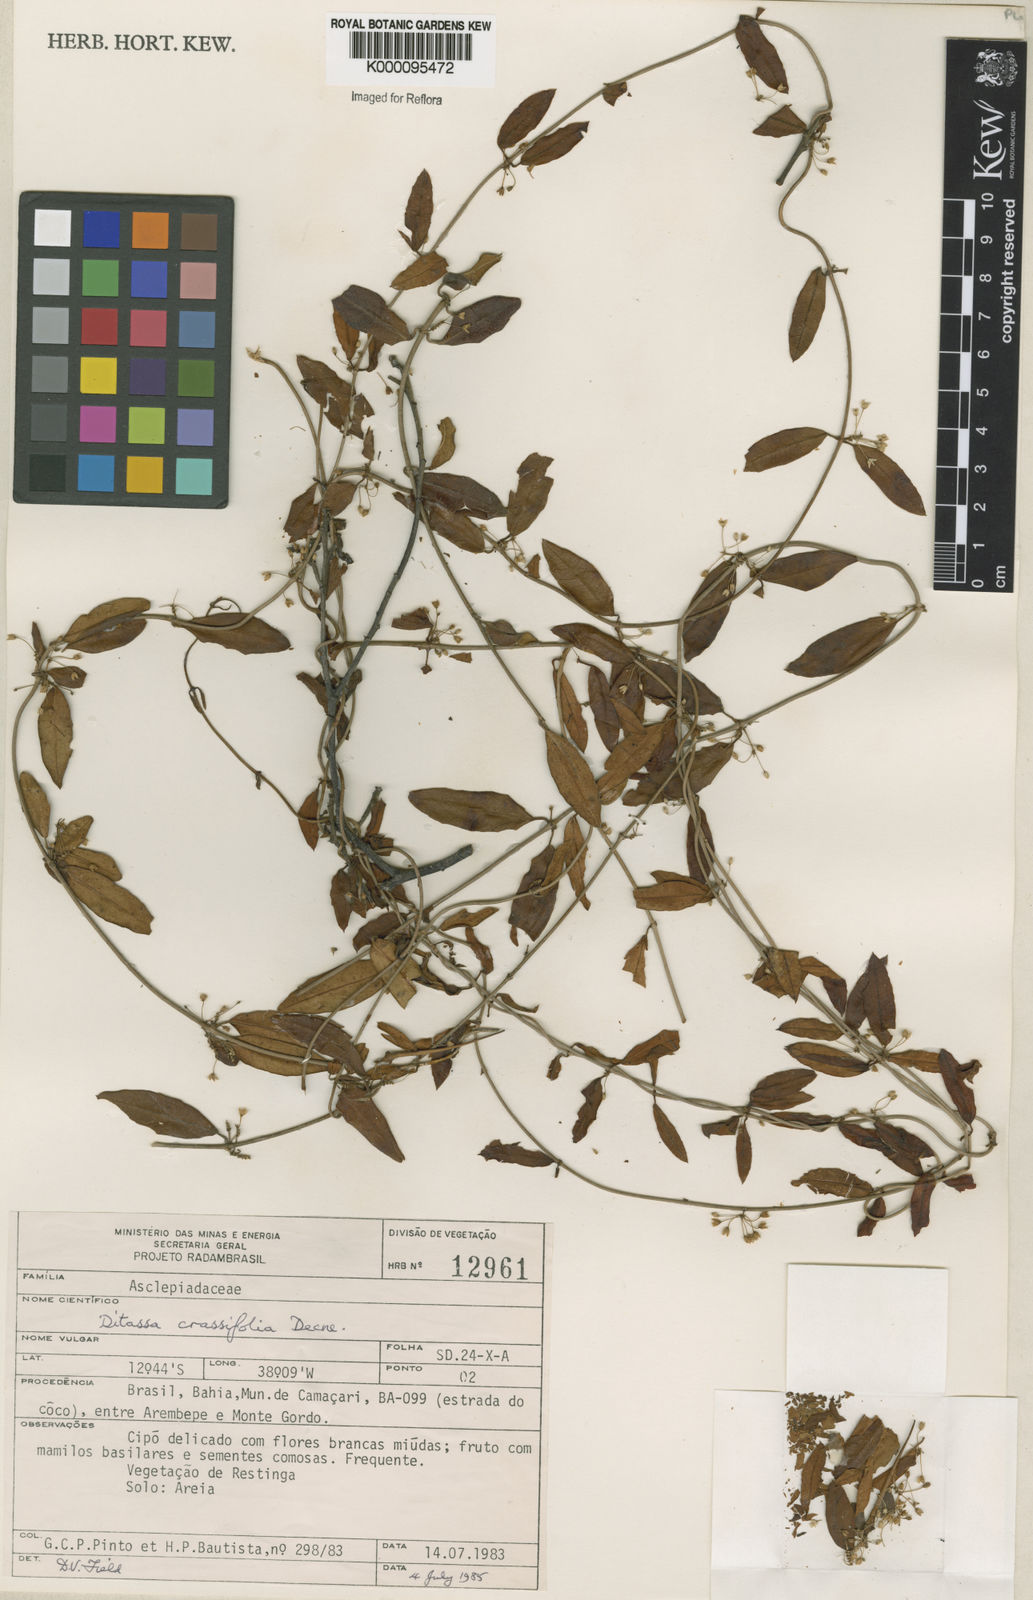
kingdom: Plantae
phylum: Tracheophyta
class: Magnoliopsida
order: Gentianales
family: Apocynaceae
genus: Ditassa
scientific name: Ditassa crassifolia
